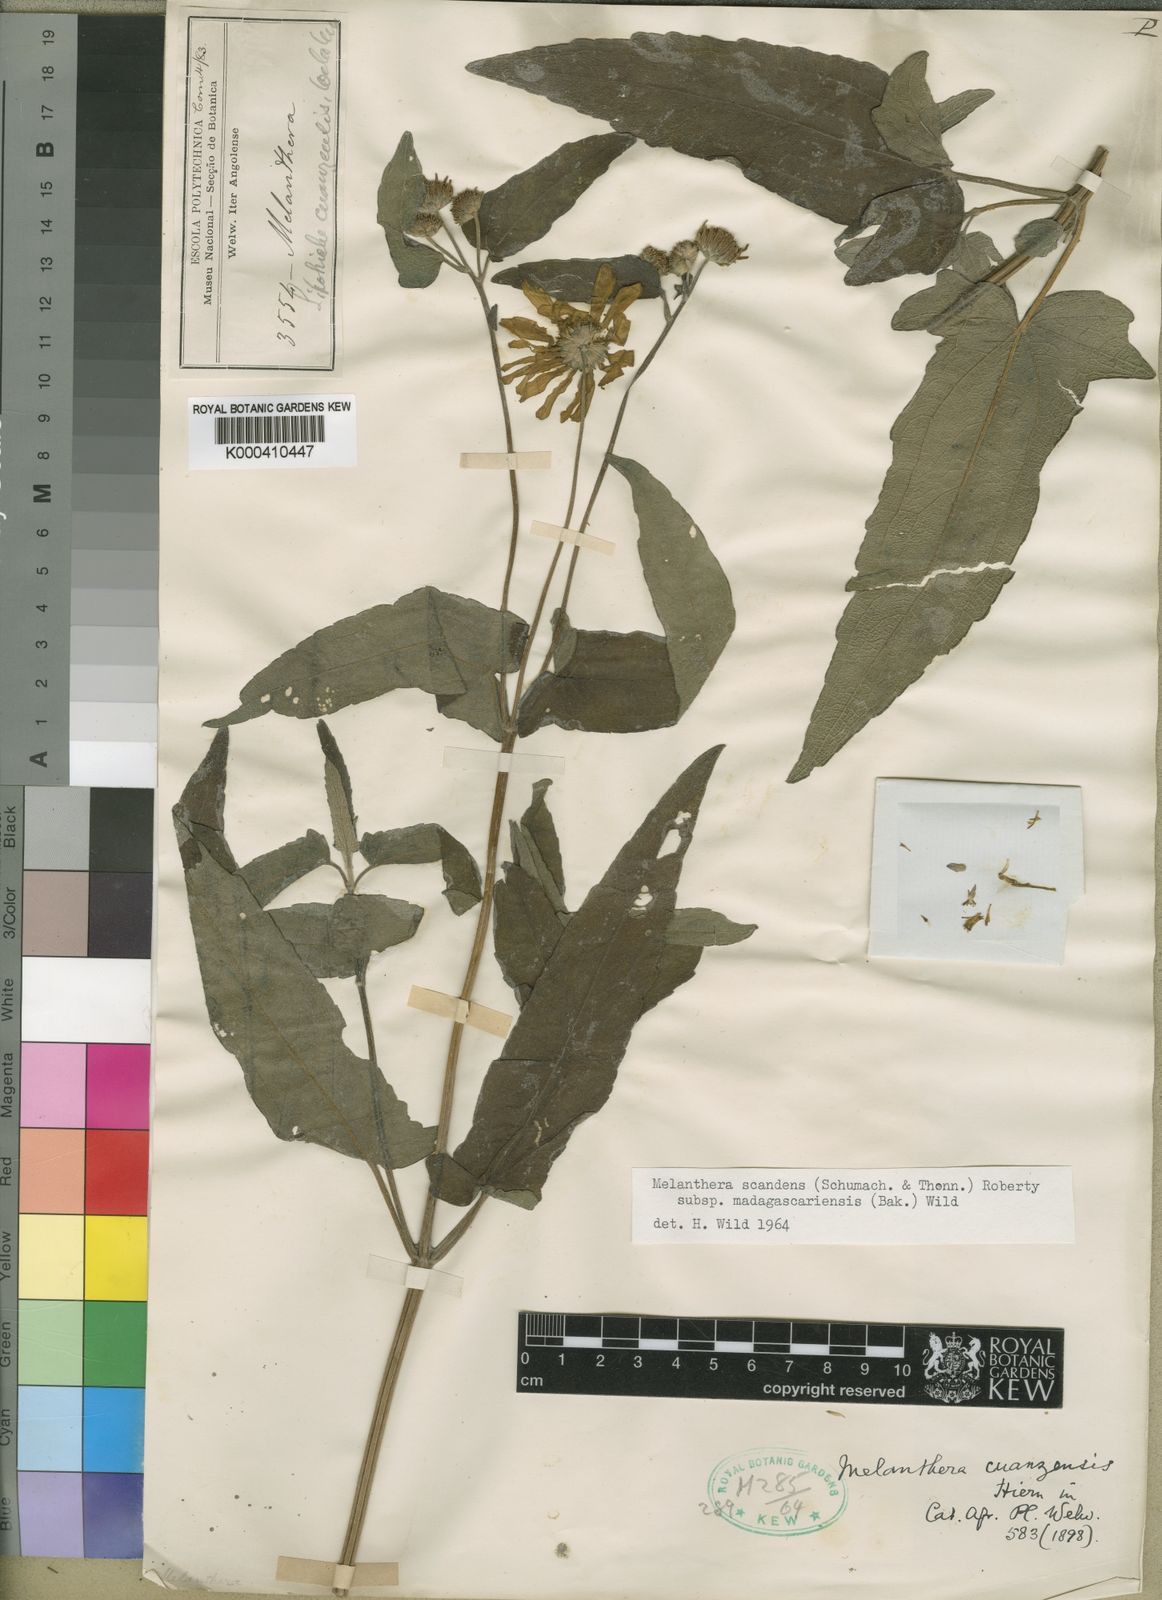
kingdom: Plantae
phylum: Tracheophyta
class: Magnoliopsida
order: Asterales
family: Asteraceae
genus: Melanthera
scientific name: Melanthera
